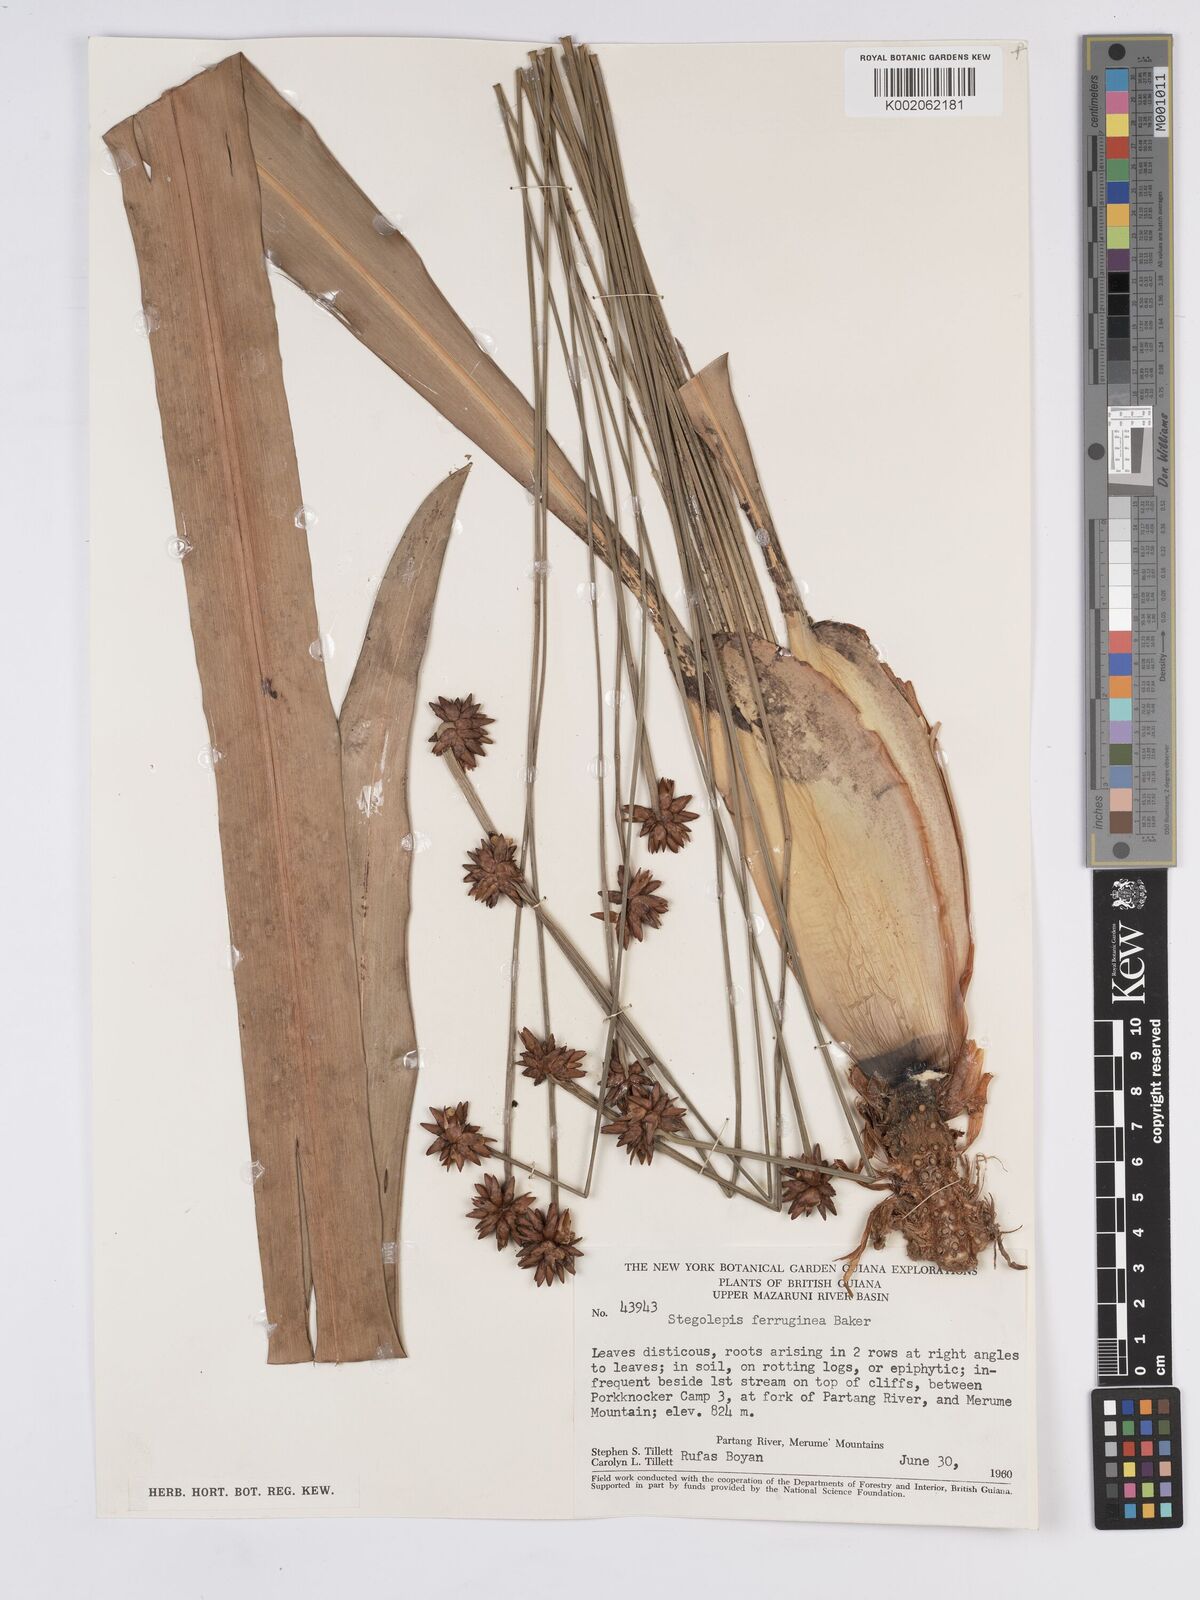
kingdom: Plantae
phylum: Tracheophyta
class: Liliopsida
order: Poales
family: Rapateaceae
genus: Stegolepis
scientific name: Stegolepis ferruginea
